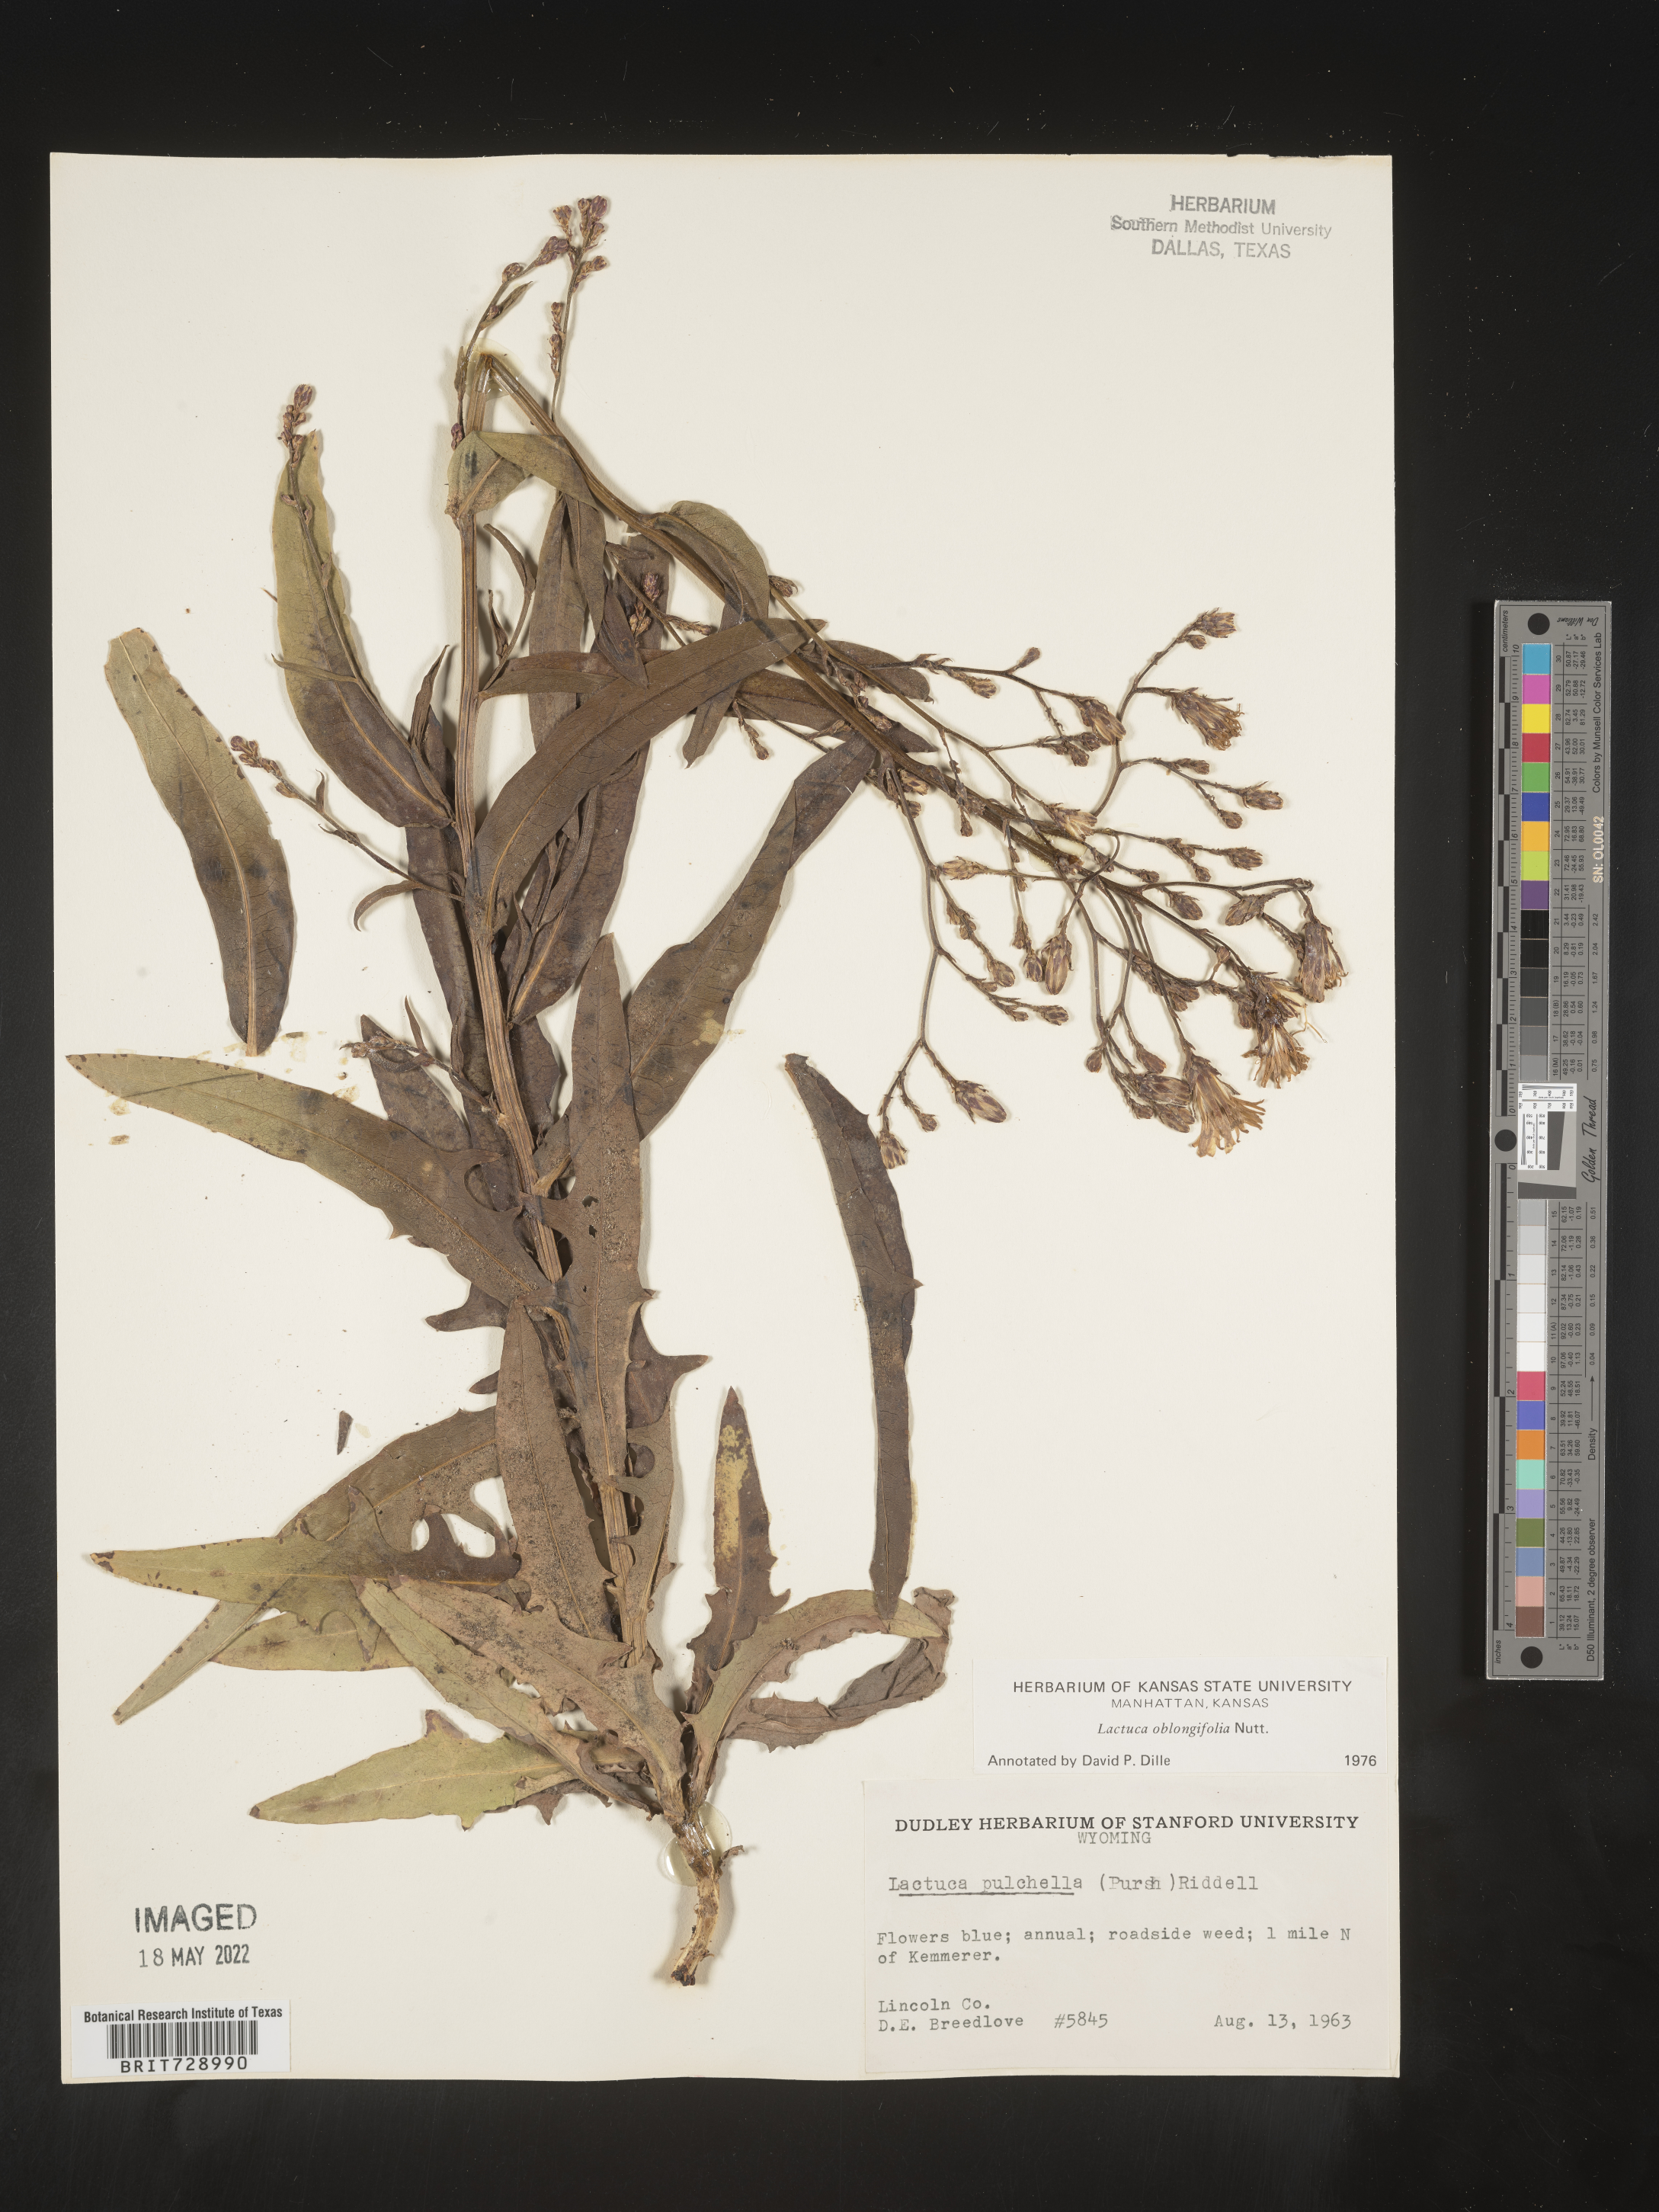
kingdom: Plantae
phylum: Tracheophyta
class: Magnoliopsida
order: Asterales
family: Asteraceae
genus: Lactuca
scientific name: Lactuca pulchella
